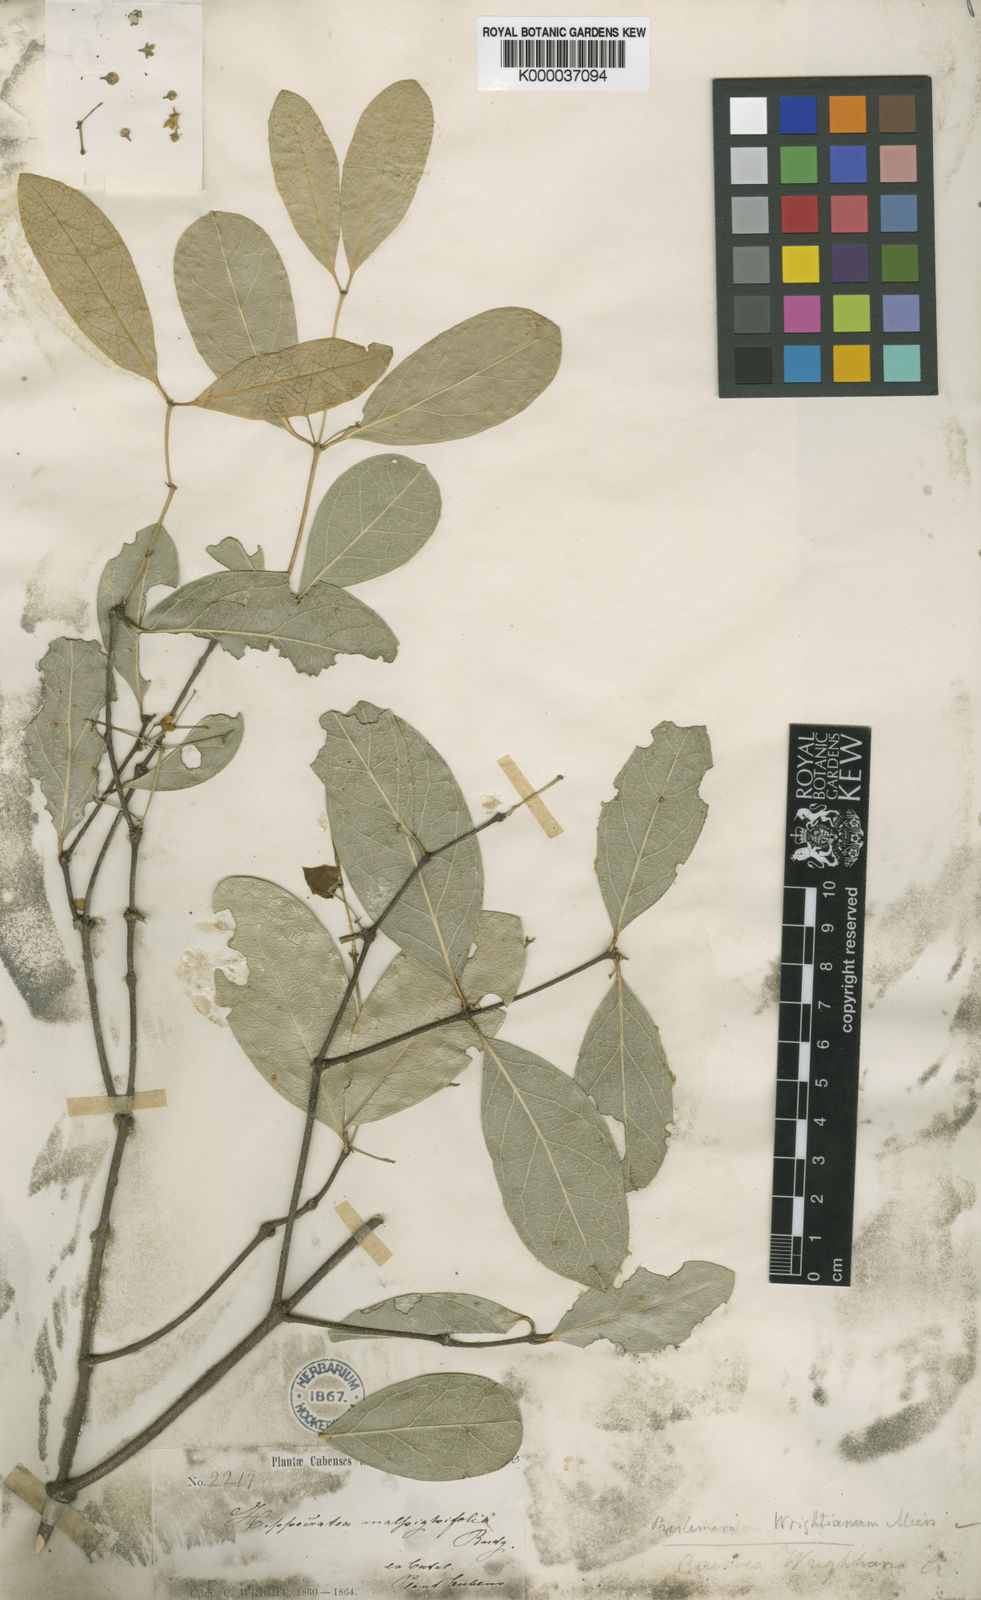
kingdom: Plantae
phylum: Tracheophyta
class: Magnoliopsida
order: Celastrales
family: Celastraceae
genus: Cuervea
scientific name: Cuervea integrifolia
